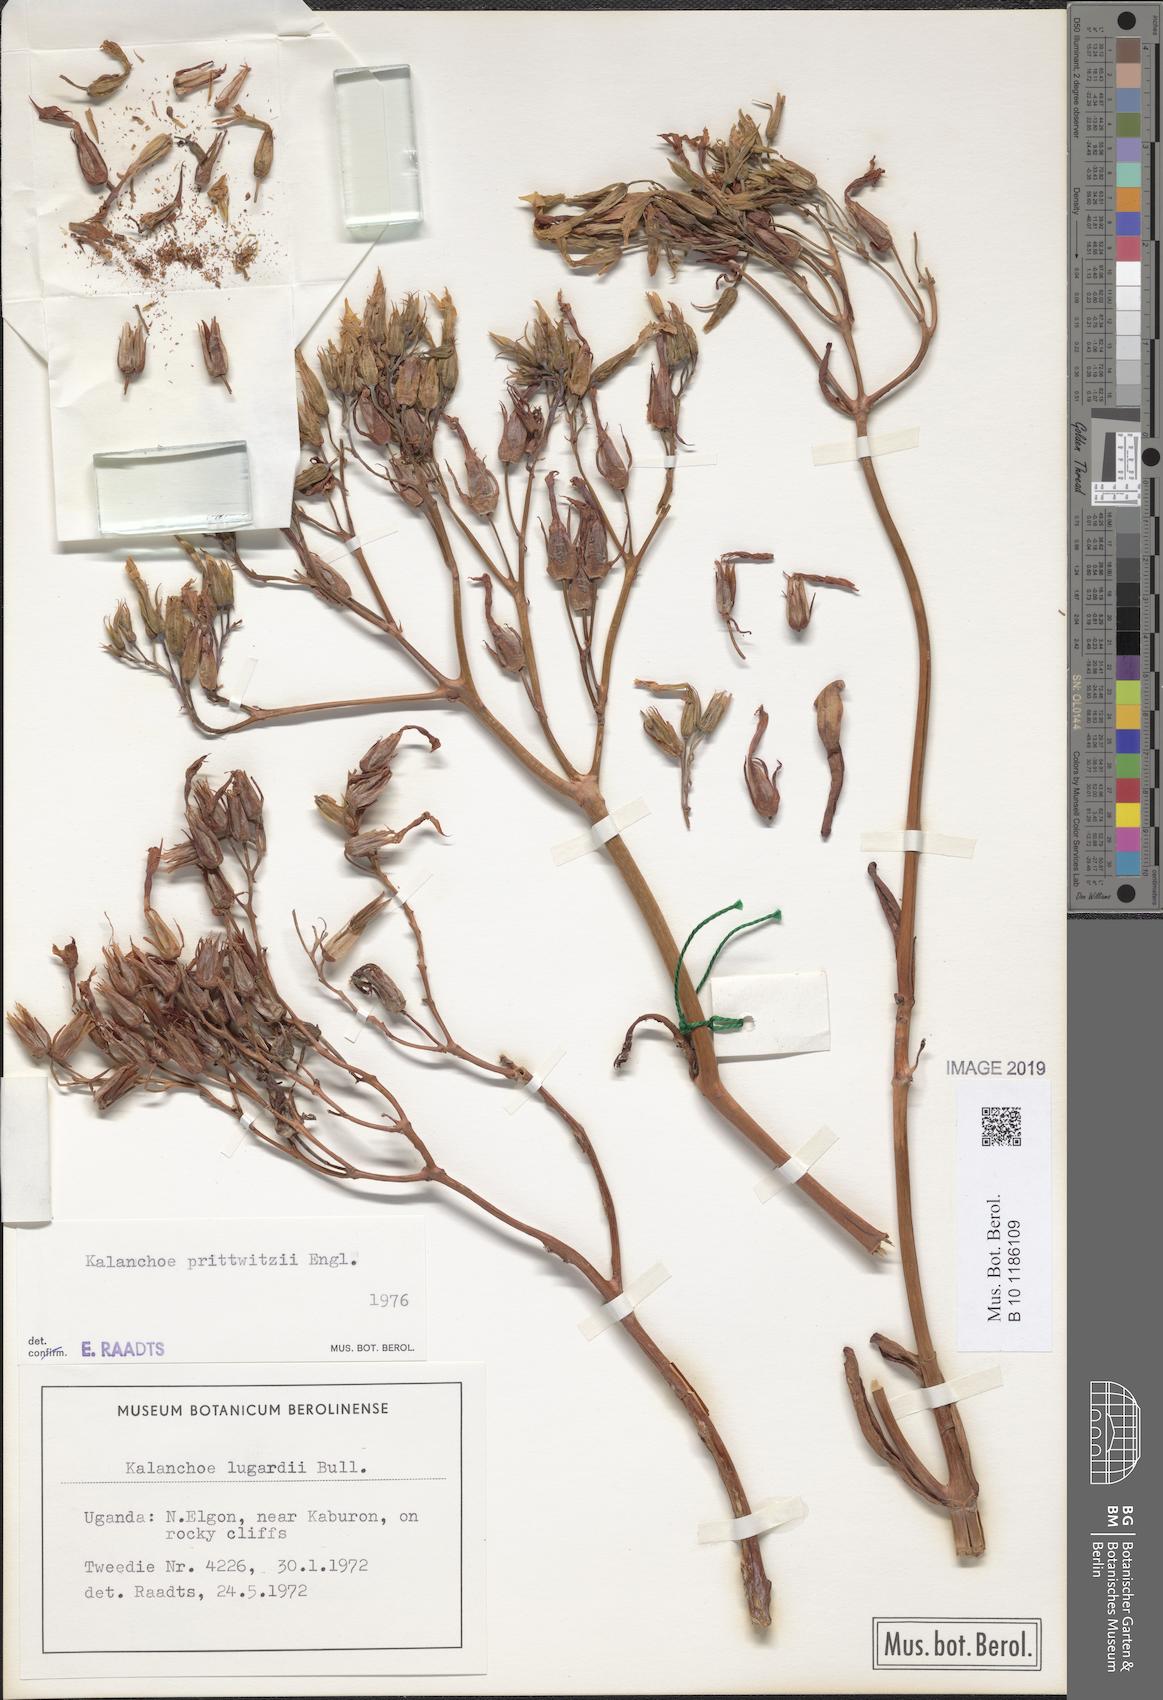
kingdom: Plantae
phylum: Tracheophyta
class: Magnoliopsida
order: Saxifragales
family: Crassulaceae
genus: Kalanchoe
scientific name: Kalanchoe marmorata
